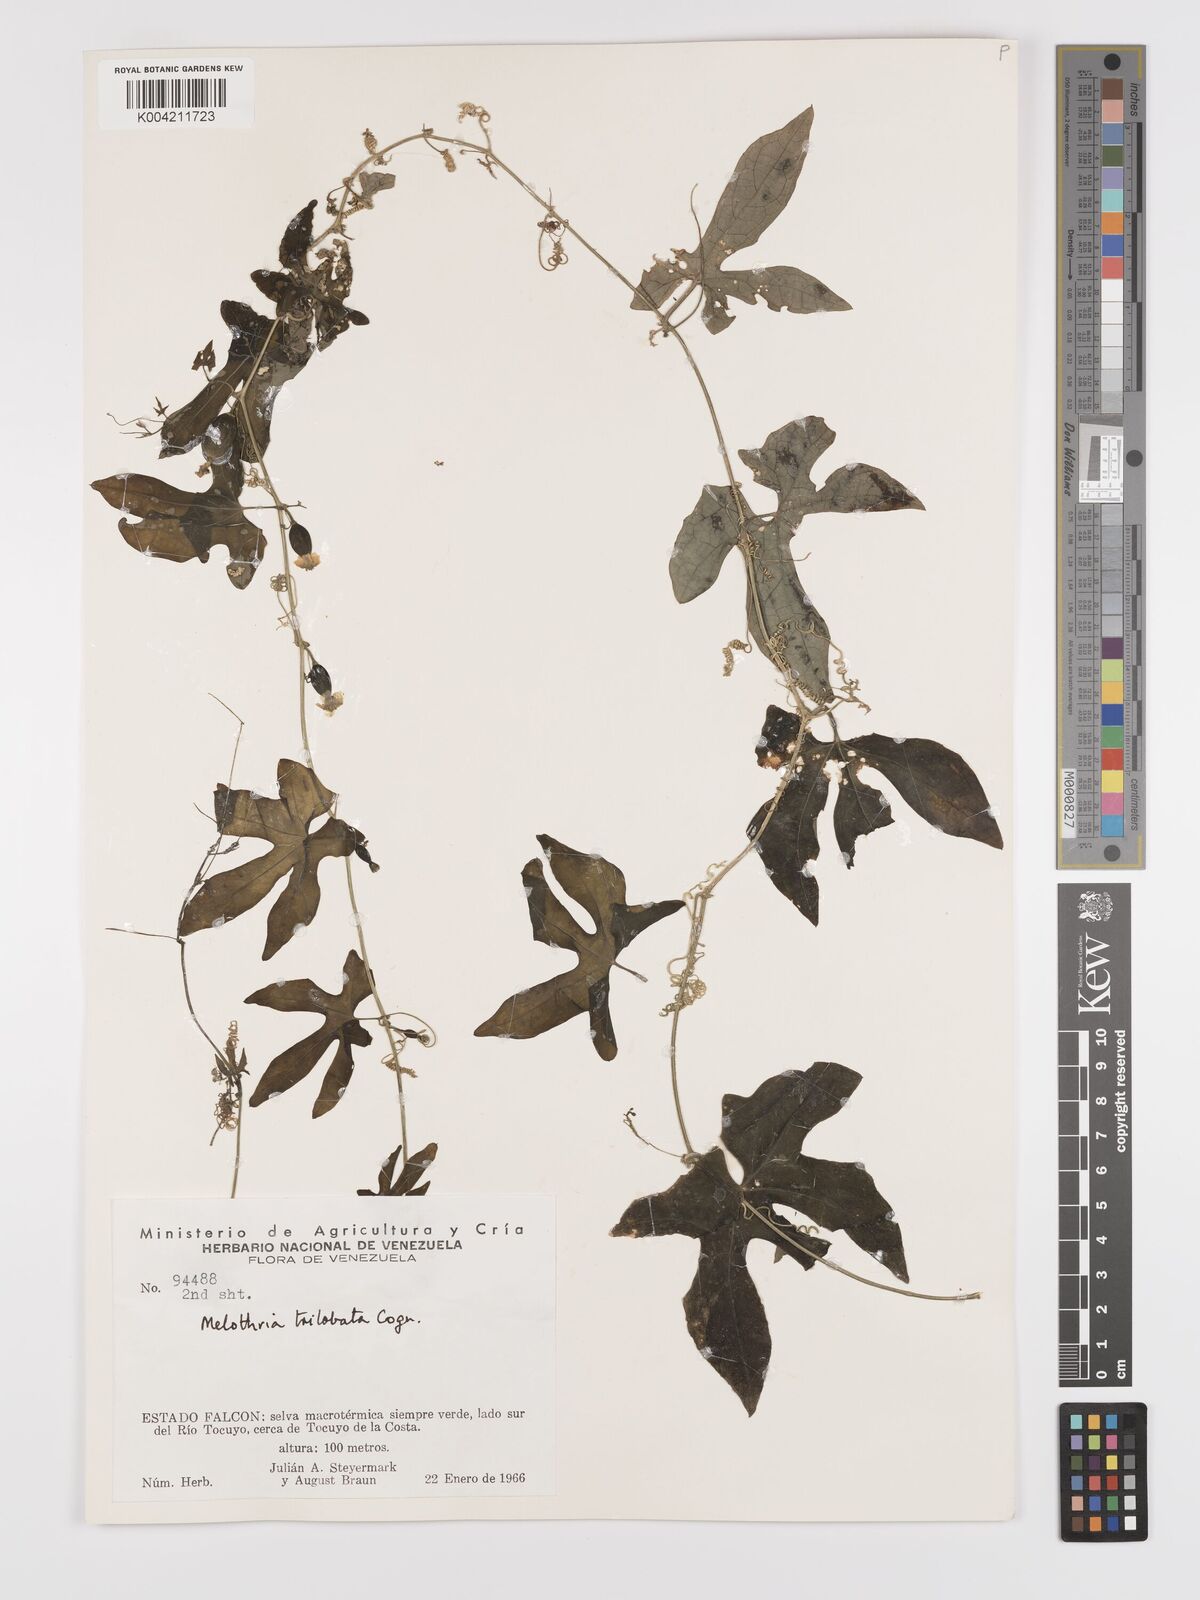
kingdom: Plantae
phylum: Tracheophyta
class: Magnoliopsida
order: Cucurbitales
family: Cucurbitaceae
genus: Melothria
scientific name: Melothria trilobata
